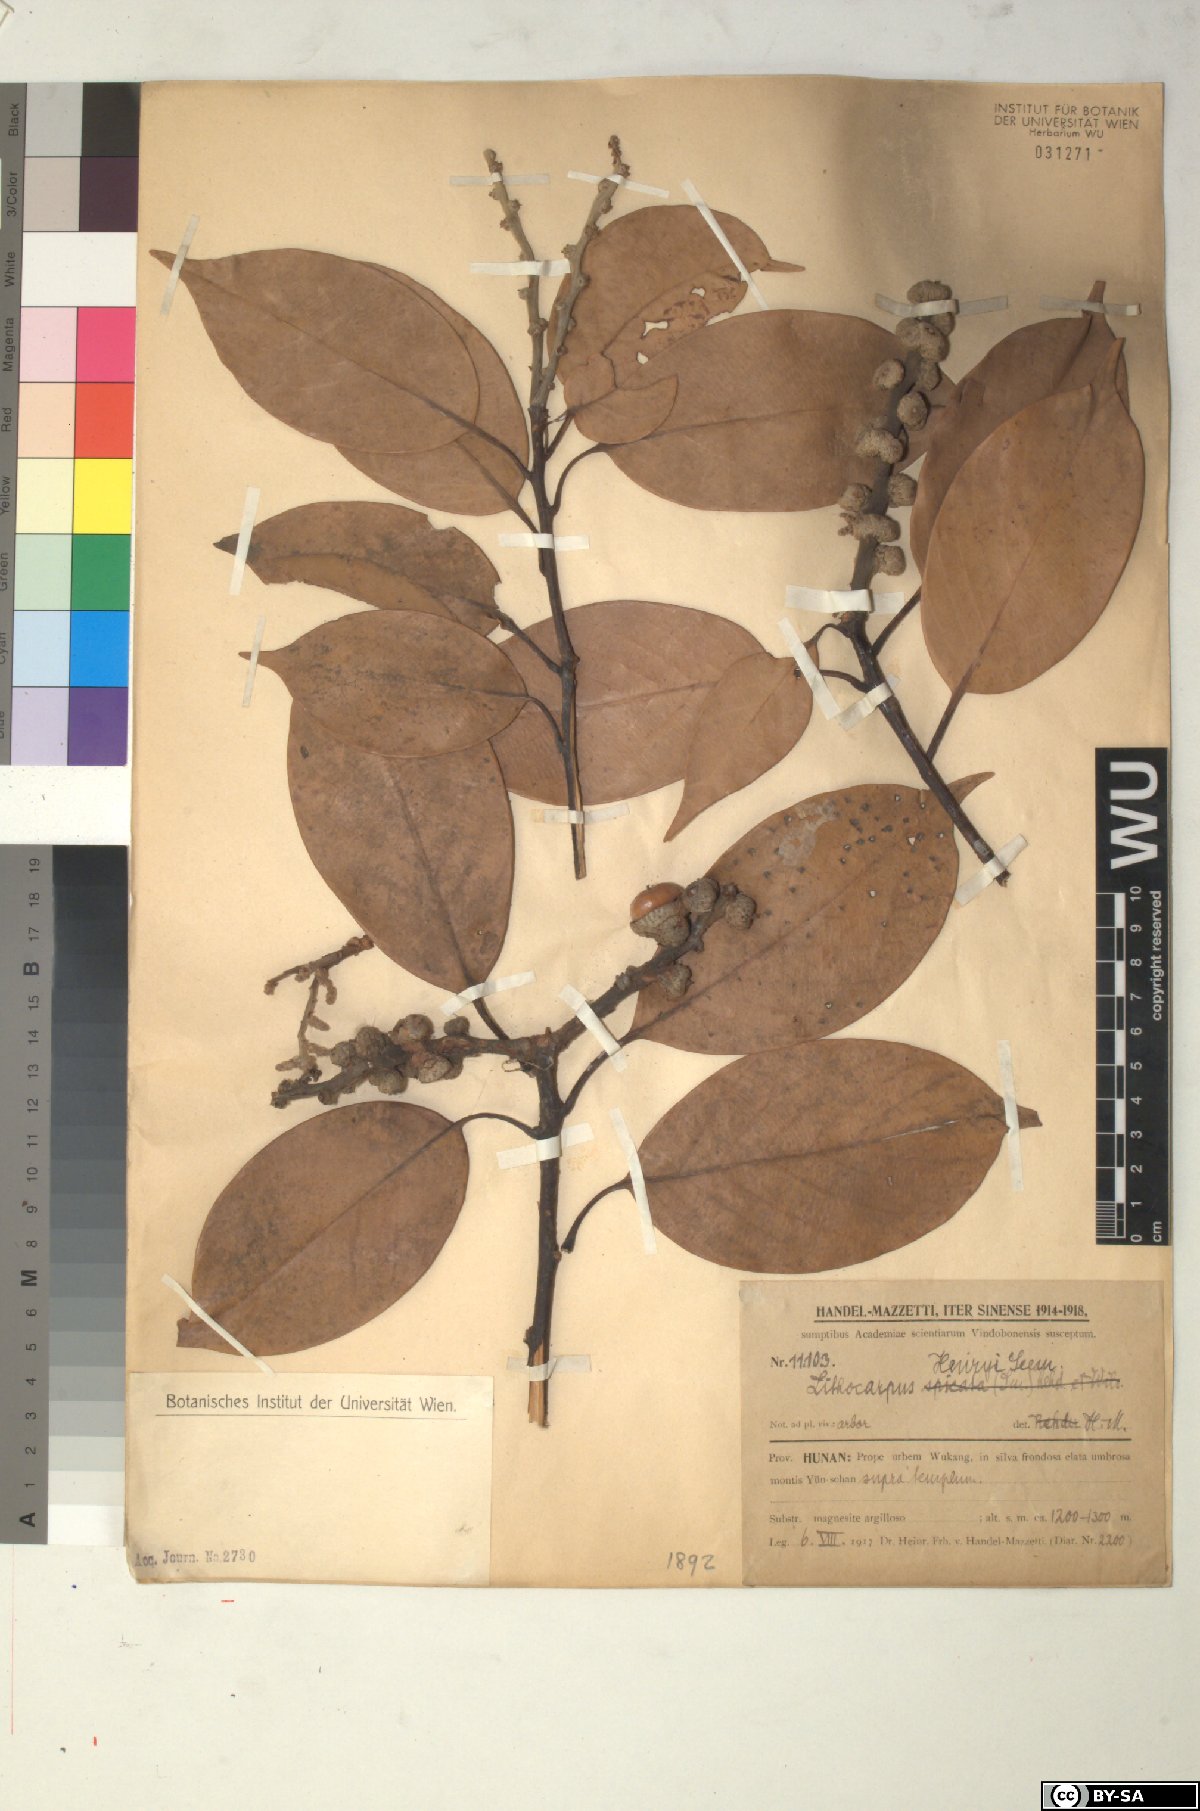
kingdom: Plantae
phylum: Tracheophyta
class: Magnoliopsida
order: Fagales
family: Fagaceae
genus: Lithocarpus
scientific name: Lithocarpus henryi
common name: Henry tanbark oak
